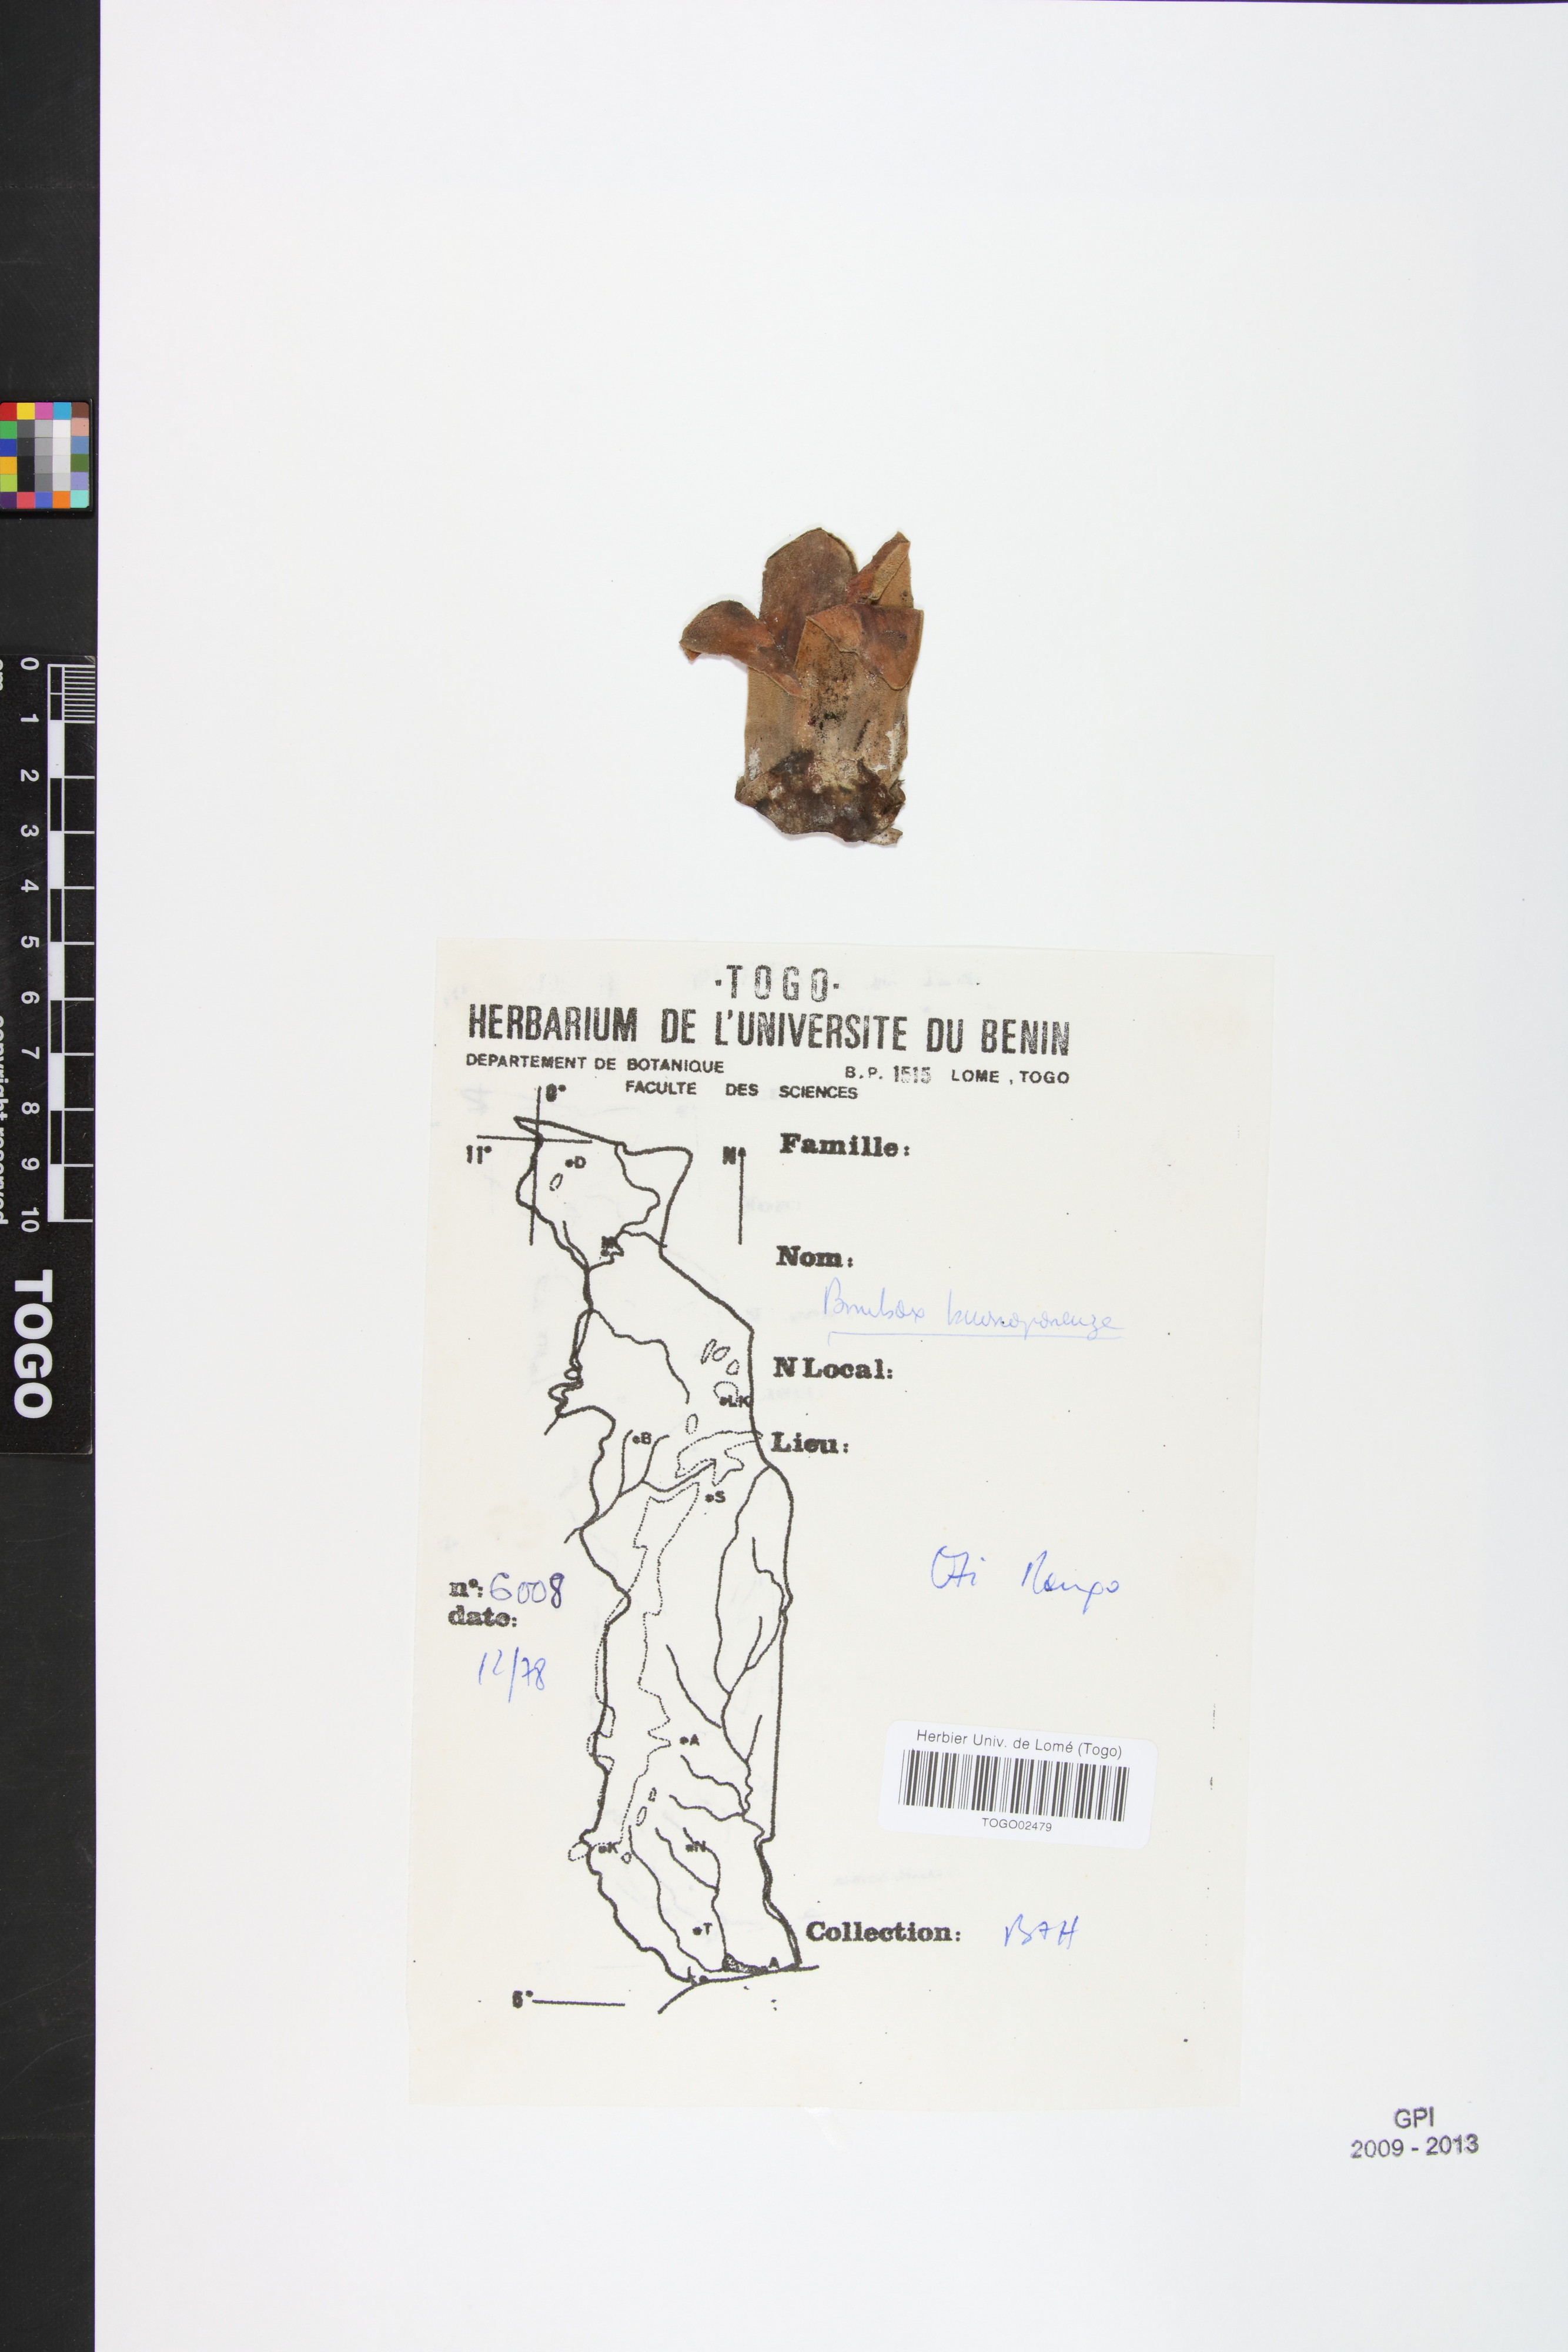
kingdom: Plantae
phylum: Tracheophyta
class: Magnoliopsida
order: Malvales
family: Malvaceae
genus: Bombax
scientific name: Bombax buonopozense
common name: Gold coast bombax
